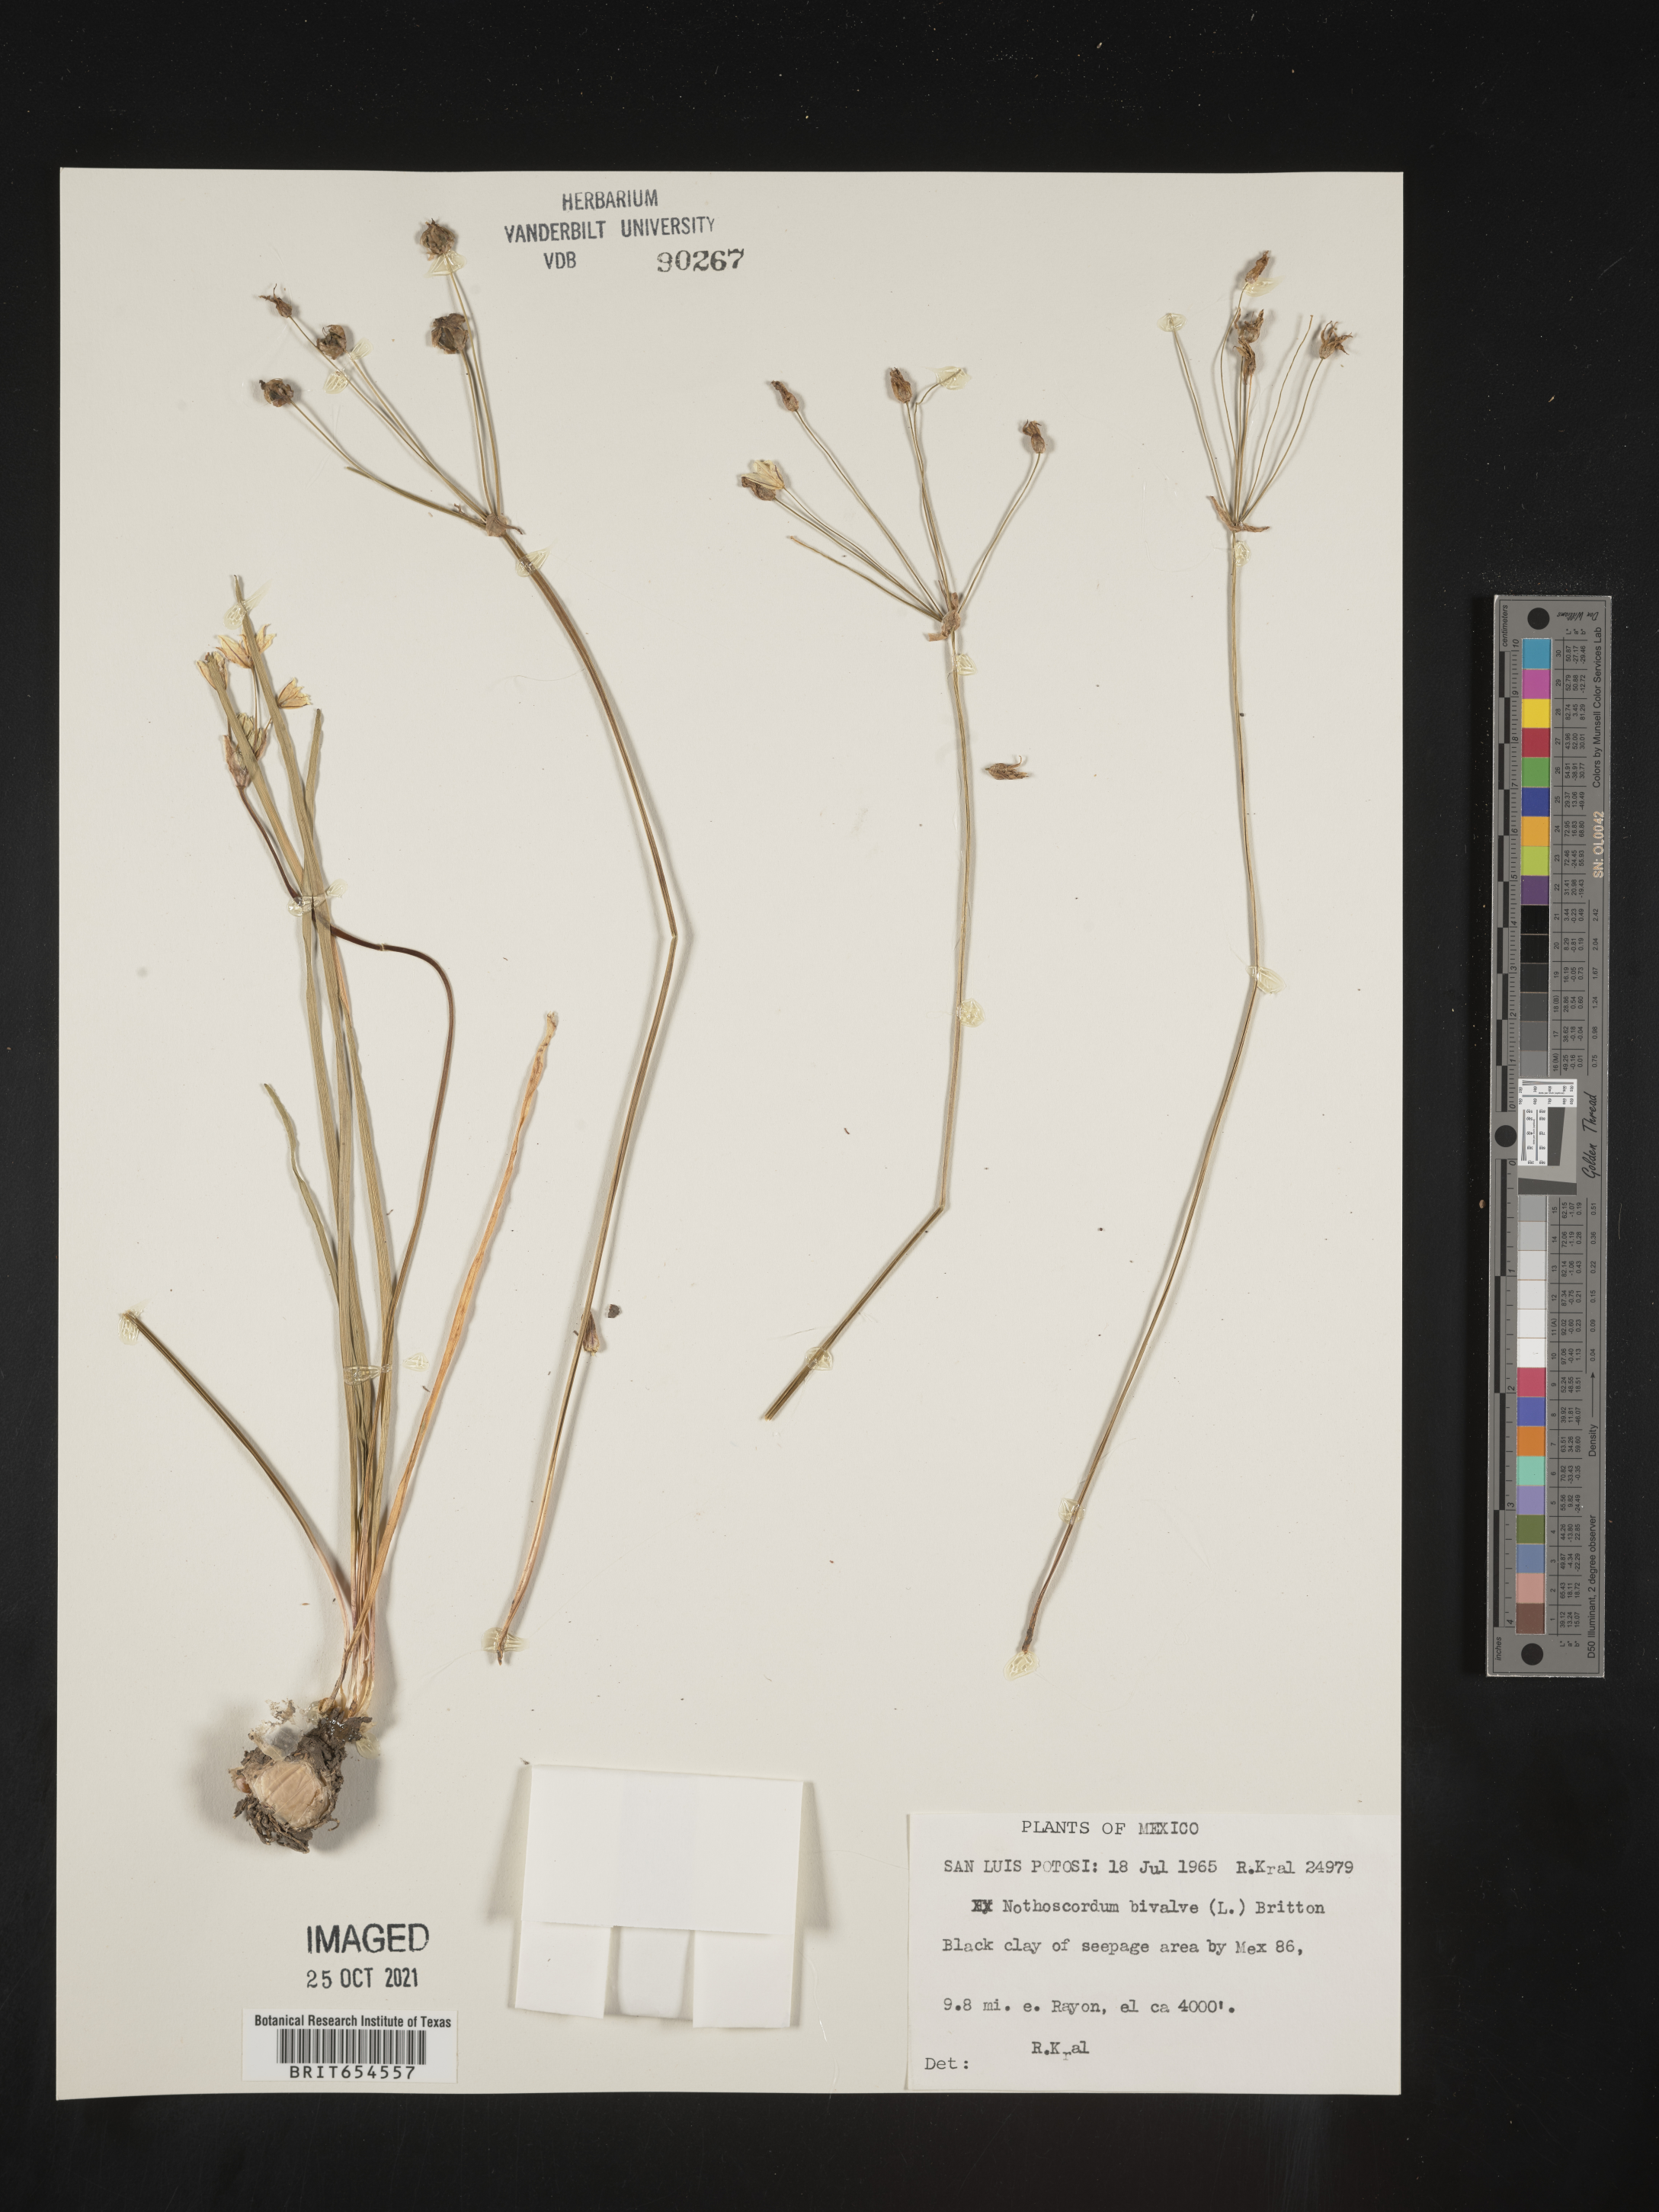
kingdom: Plantae
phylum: Tracheophyta
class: Liliopsida
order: Asparagales
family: Amaryllidaceae
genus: Nothoscordum
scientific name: Nothoscordum
